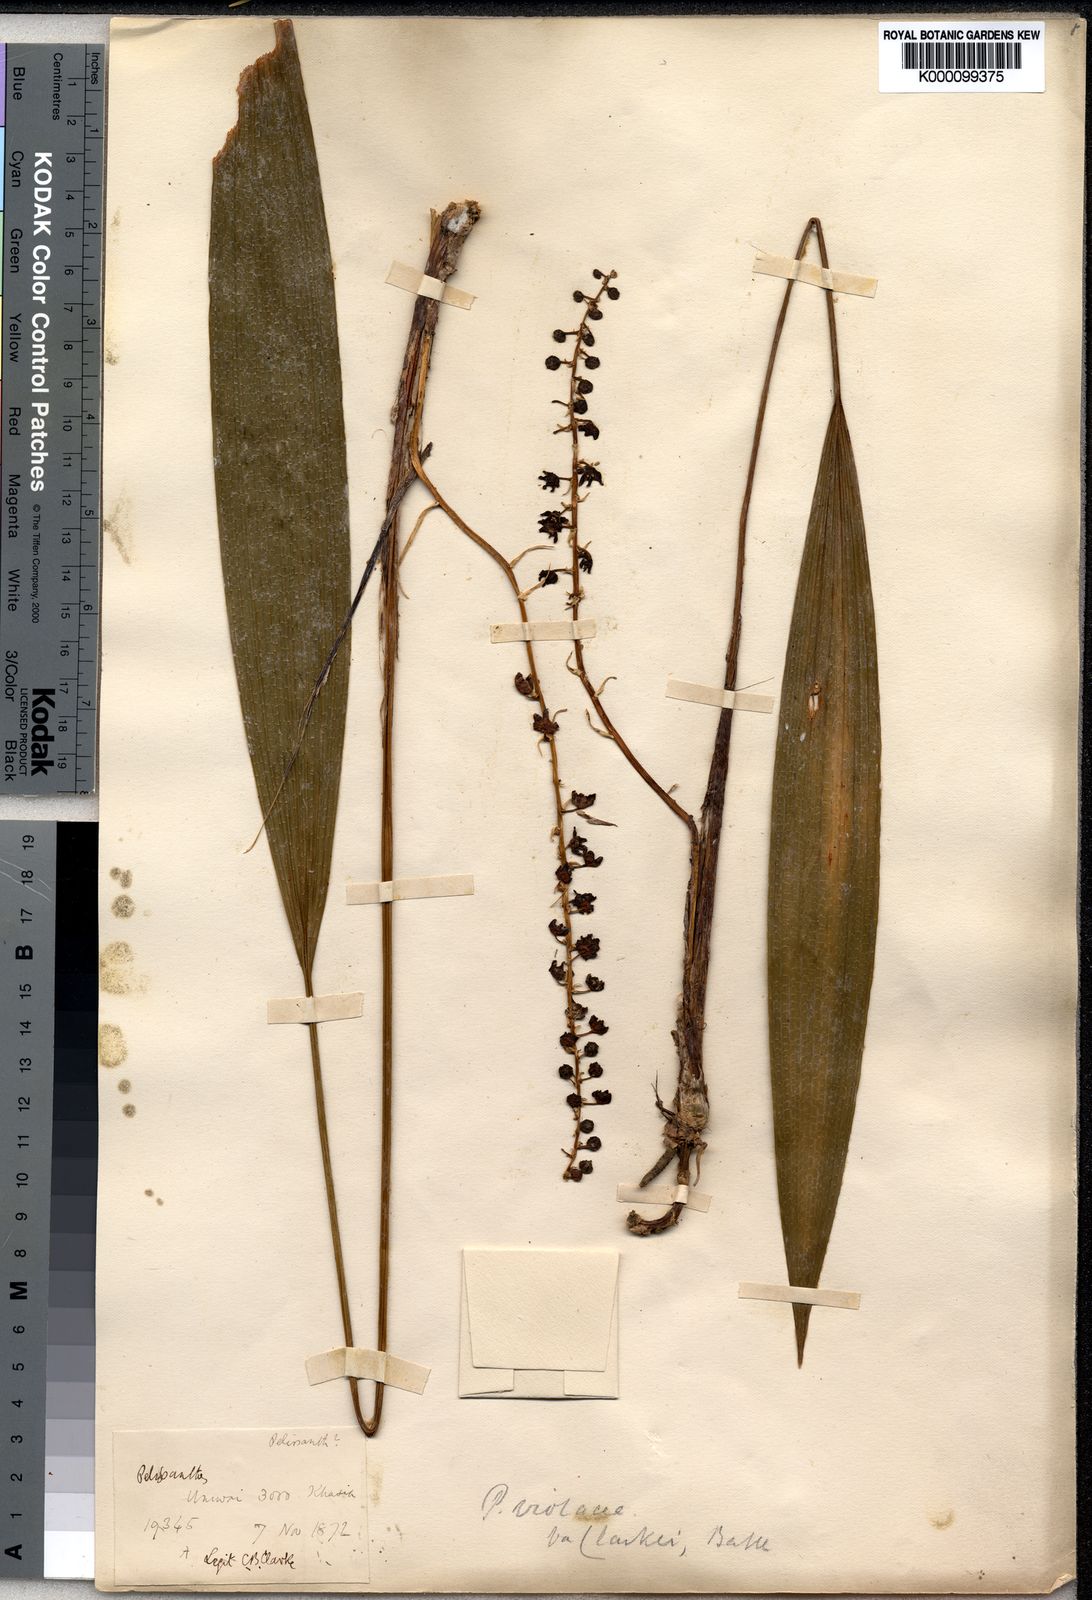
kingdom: Plantae
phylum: Tracheophyta
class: Liliopsida
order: Asparagales
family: Asparagaceae
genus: Peliosanthes
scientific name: Peliosanthes
